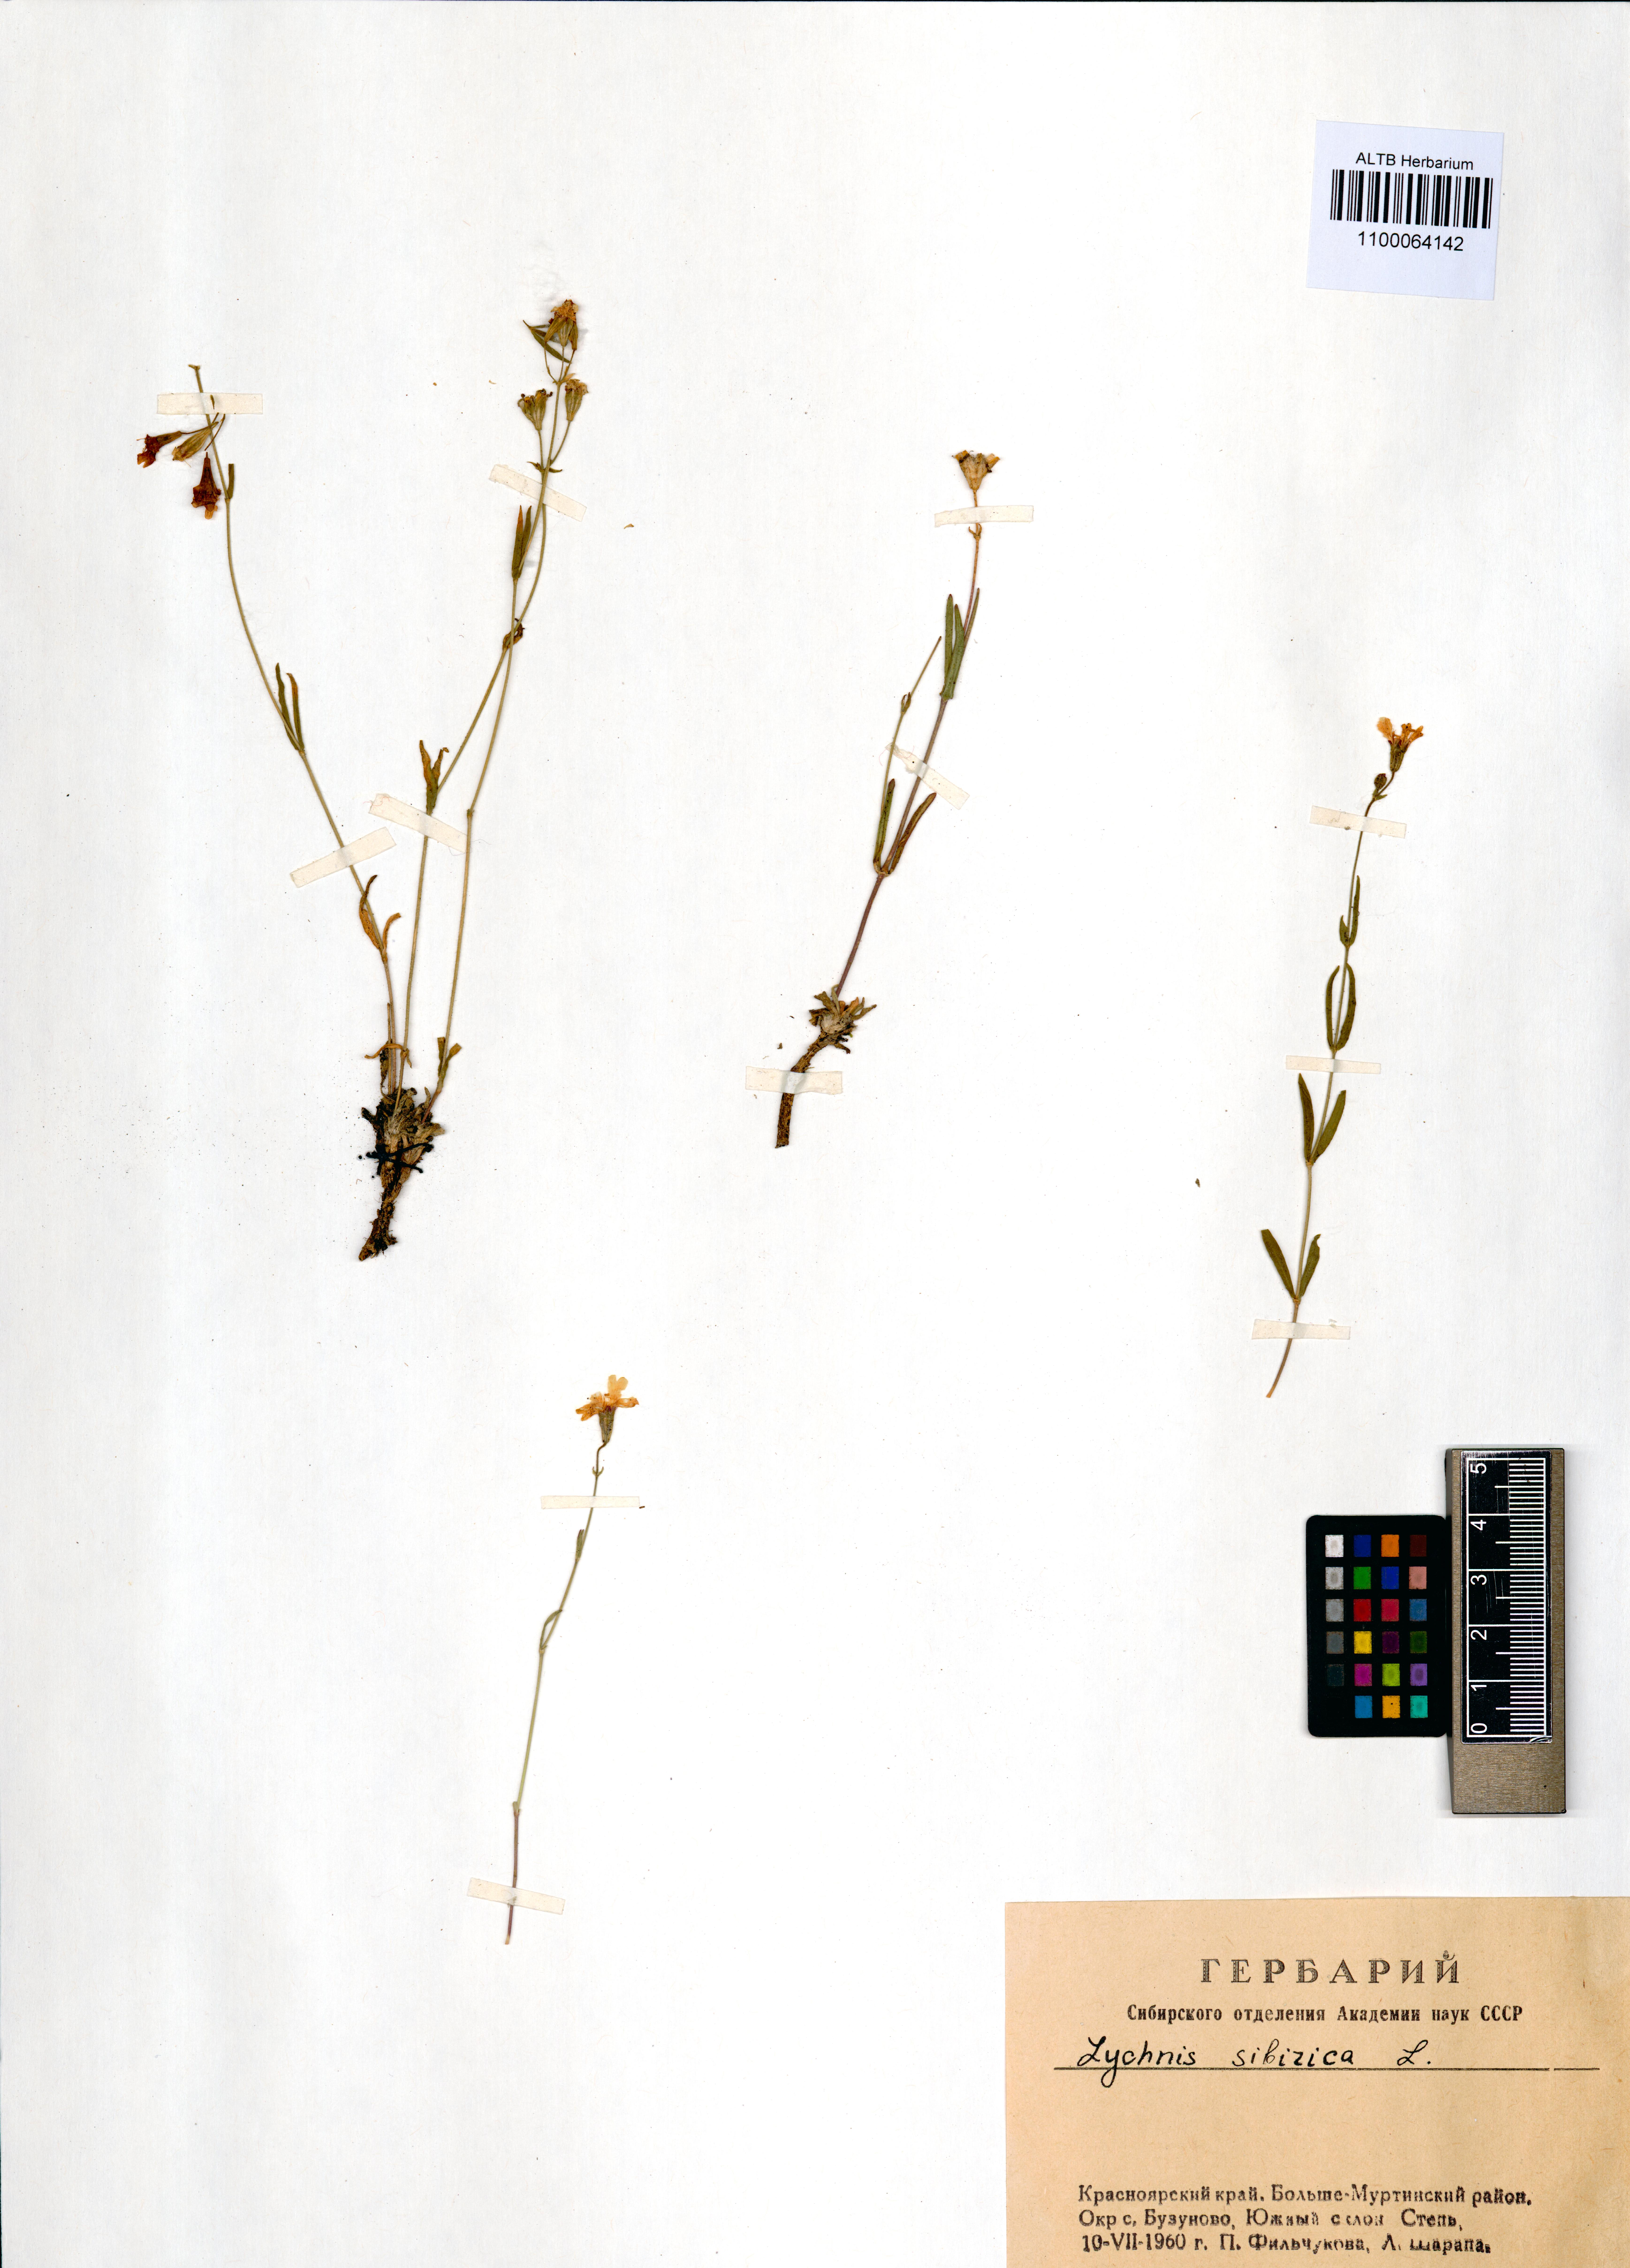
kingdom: Plantae
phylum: Tracheophyta
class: Magnoliopsida
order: Caryophyllales
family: Caryophyllaceae
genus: Silene
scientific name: Silene orientalimongolica
